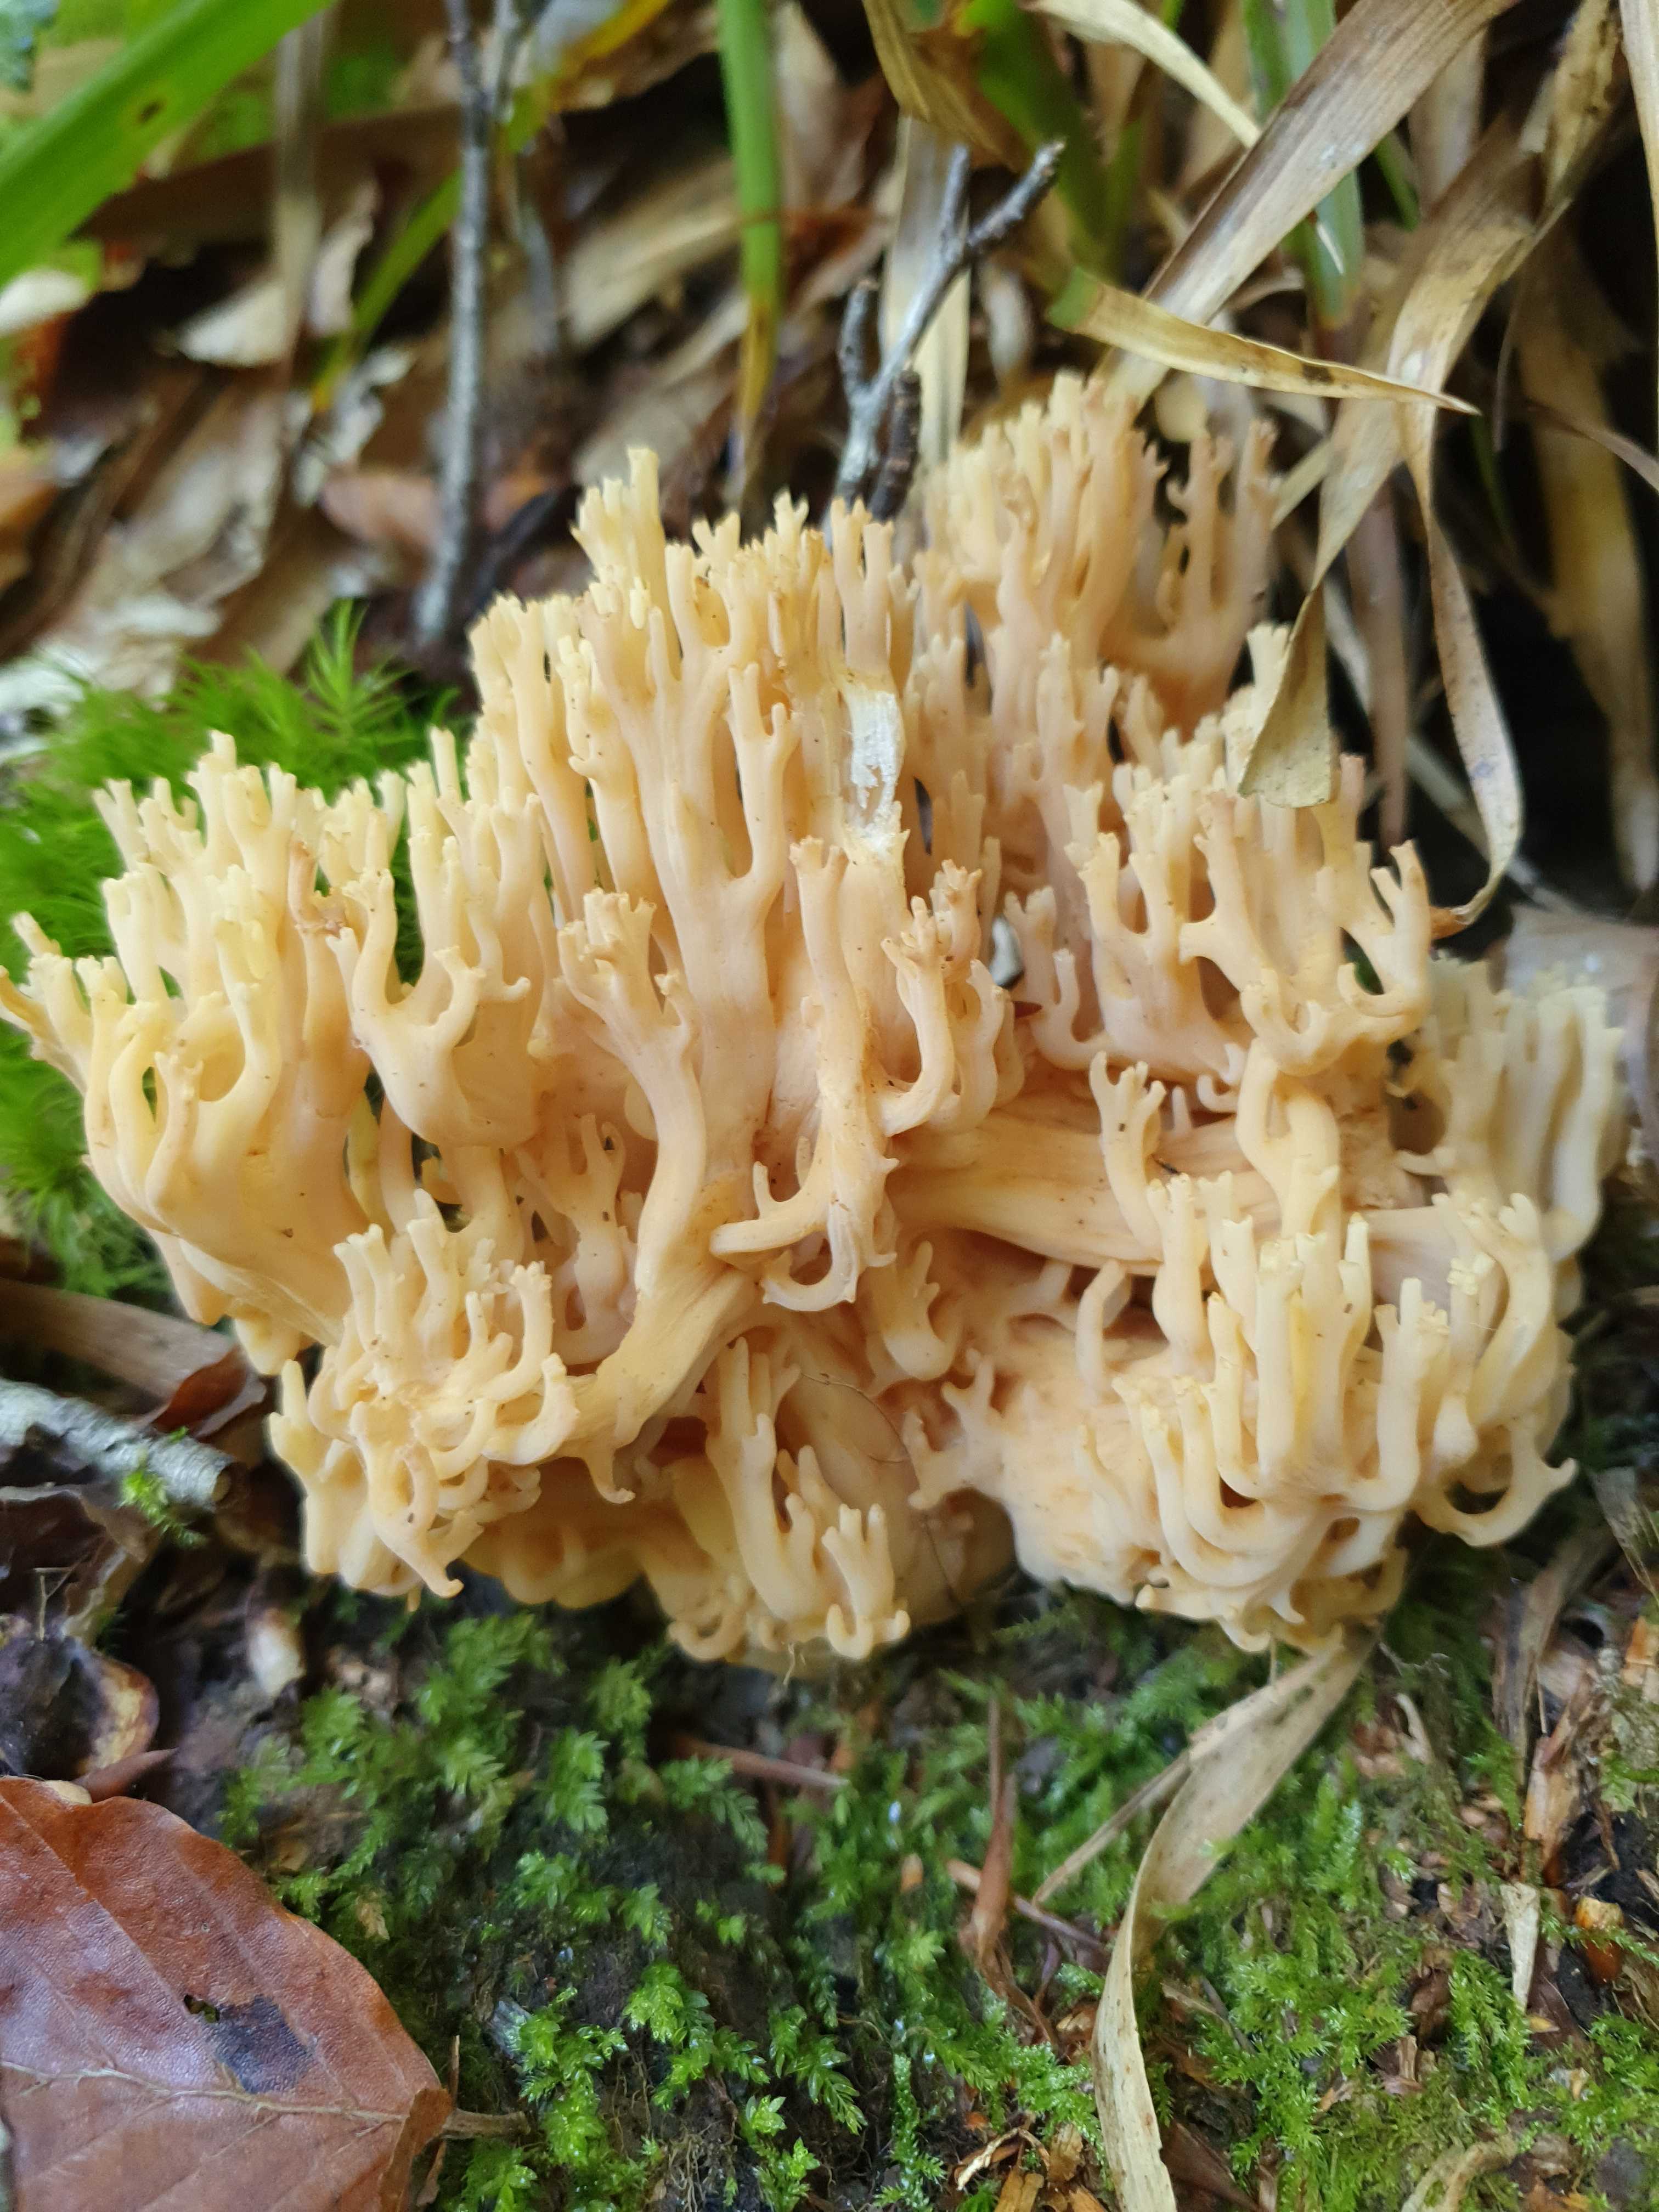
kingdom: Fungi
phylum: Basidiomycota
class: Agaricomycetes
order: Gomphales
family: Gomphaceae
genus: Ramaria
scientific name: Ramaria flavescens
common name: stor koralsvamp
